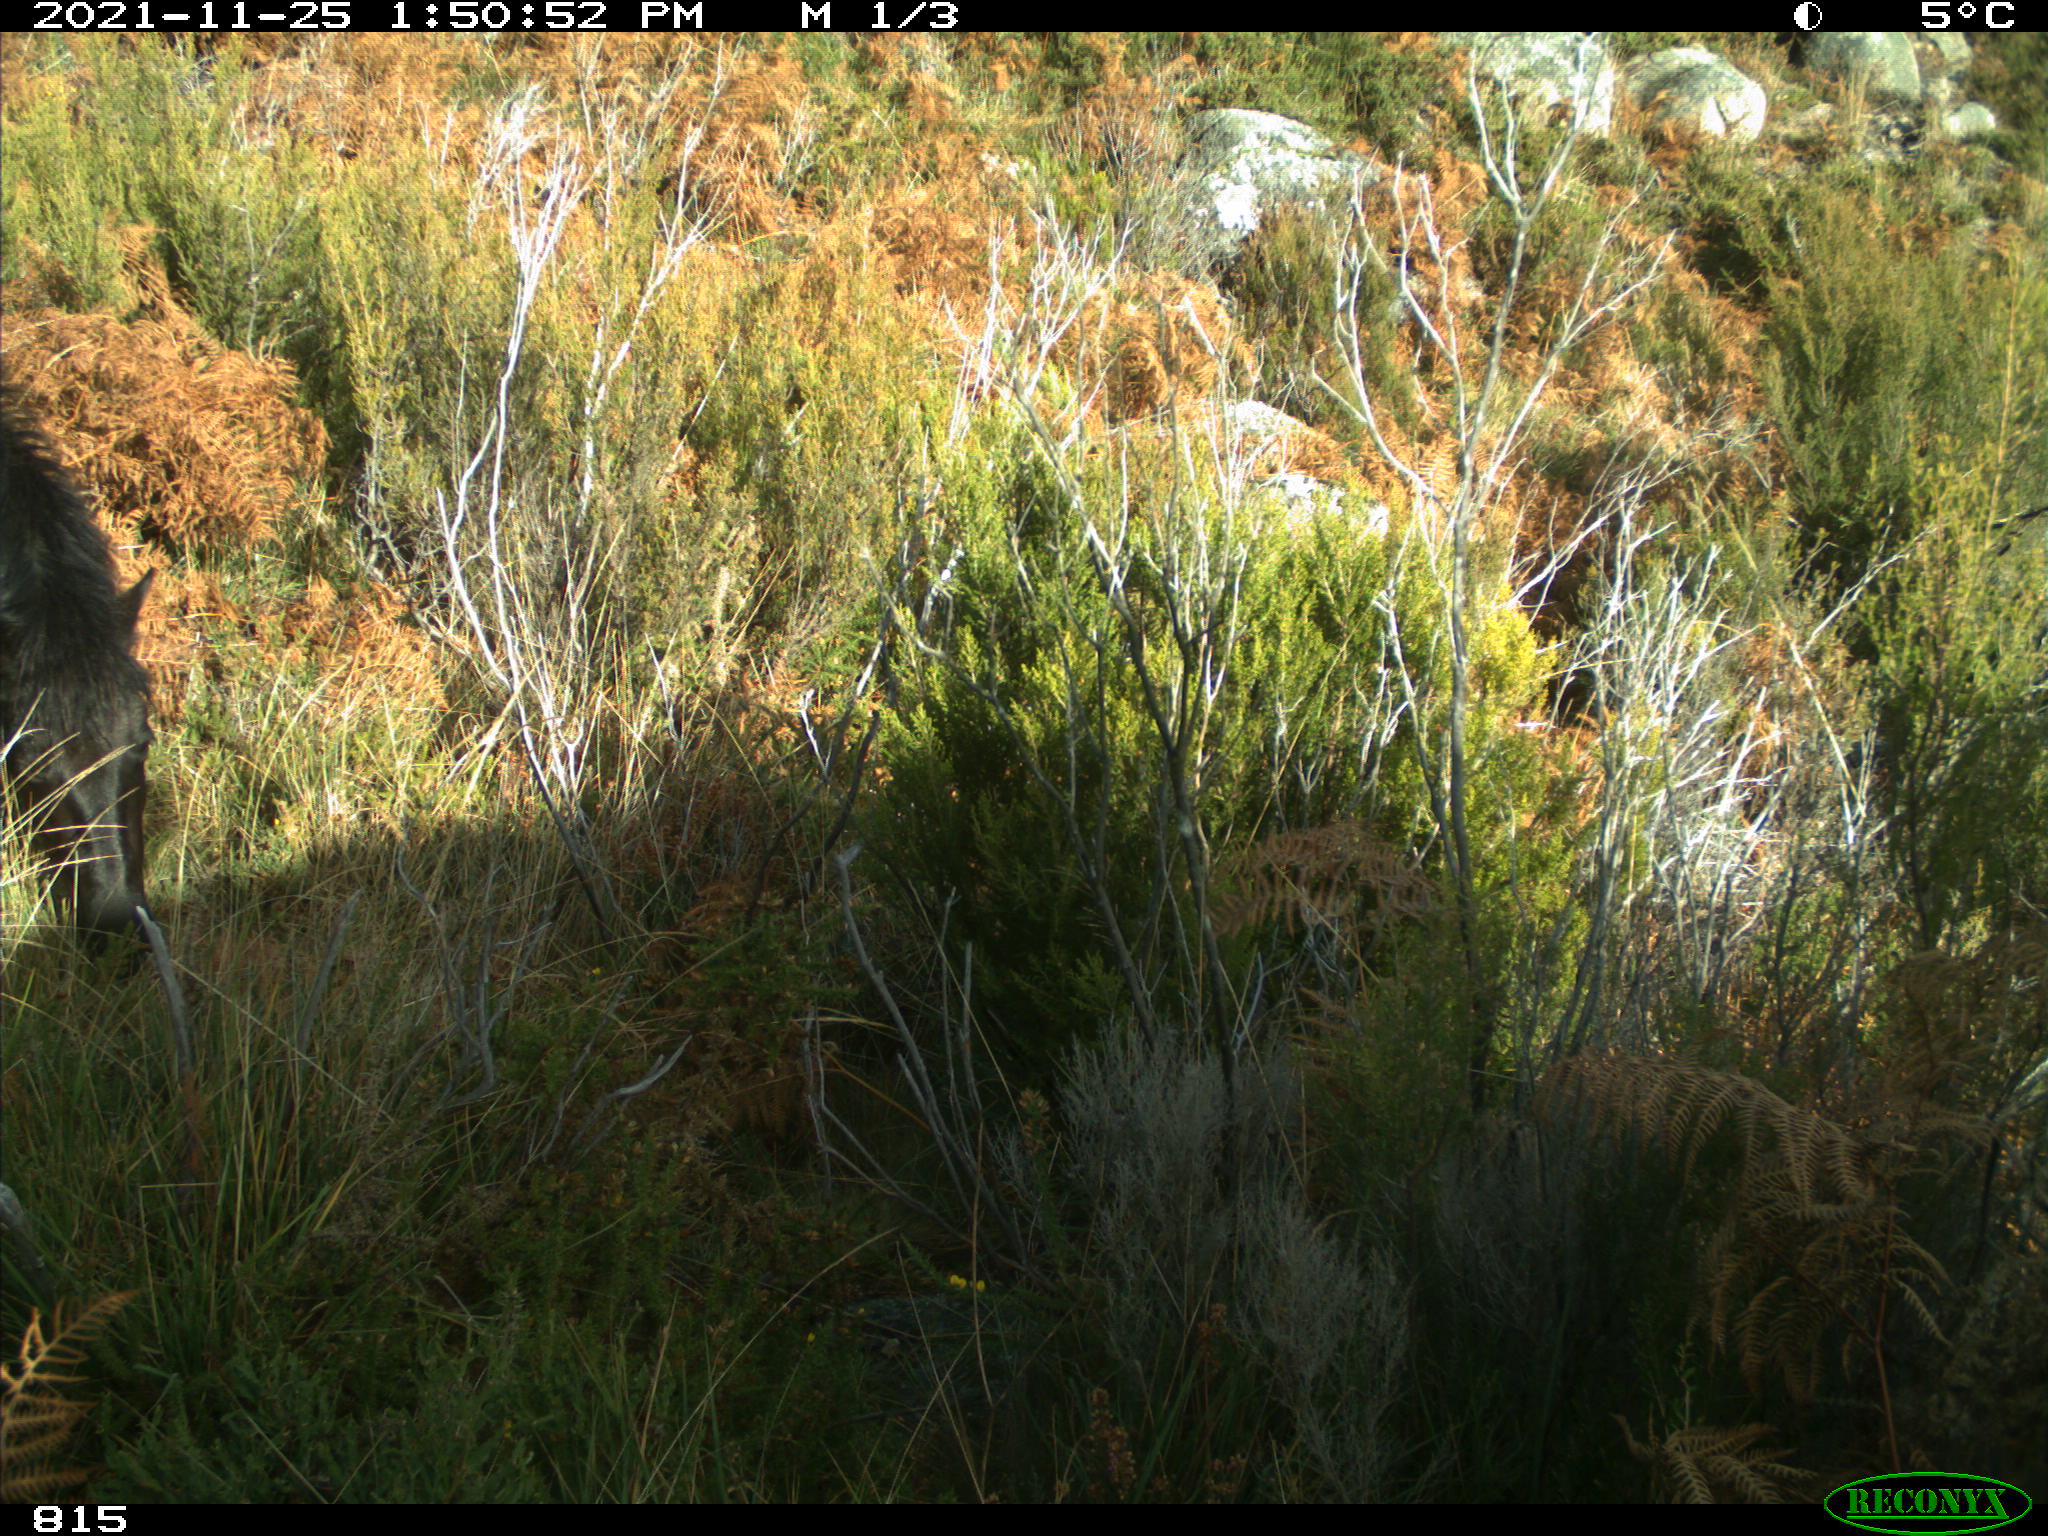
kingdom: Animalia
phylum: Chordata
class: Mammalia
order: Perissodactyla
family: Equidae
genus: Equus
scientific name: Equus caballus
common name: Horse
